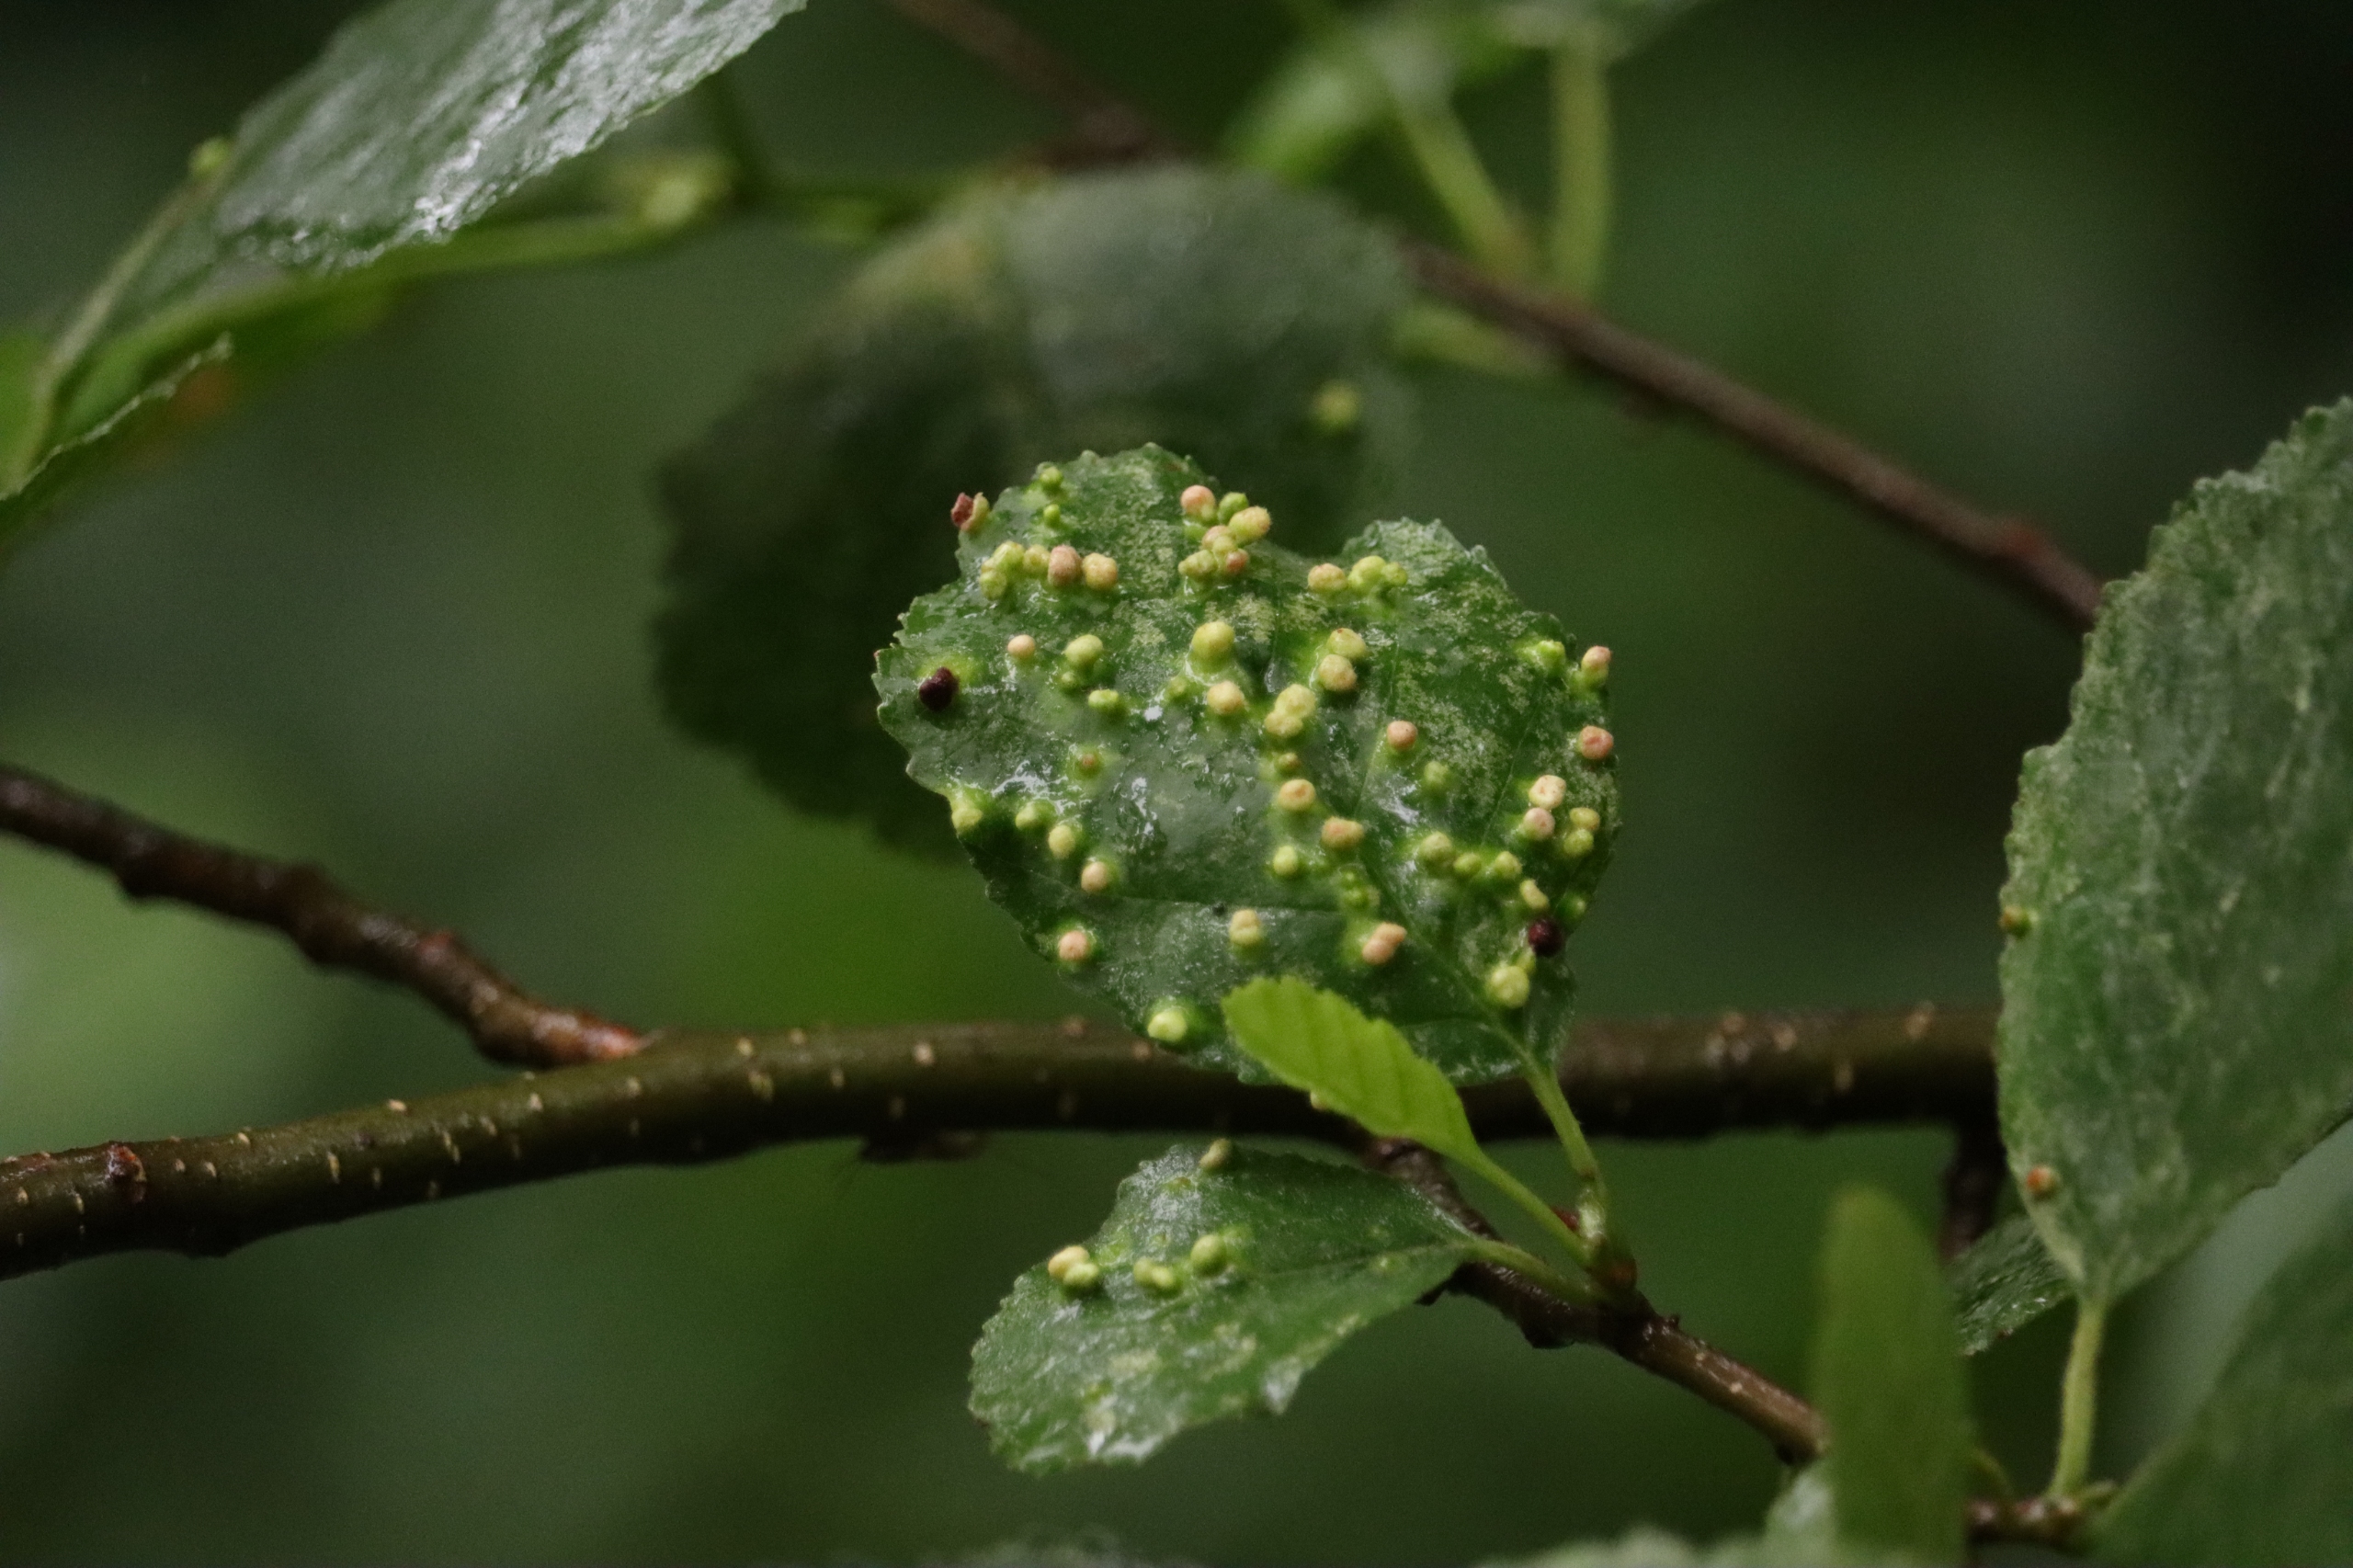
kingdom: Animalia
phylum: Arthropoda
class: Arachnida
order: Trombidiformes
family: Eriophyidae
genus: Eriophyes
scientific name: Eriophyes laevis
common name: Ellepunggalmide
